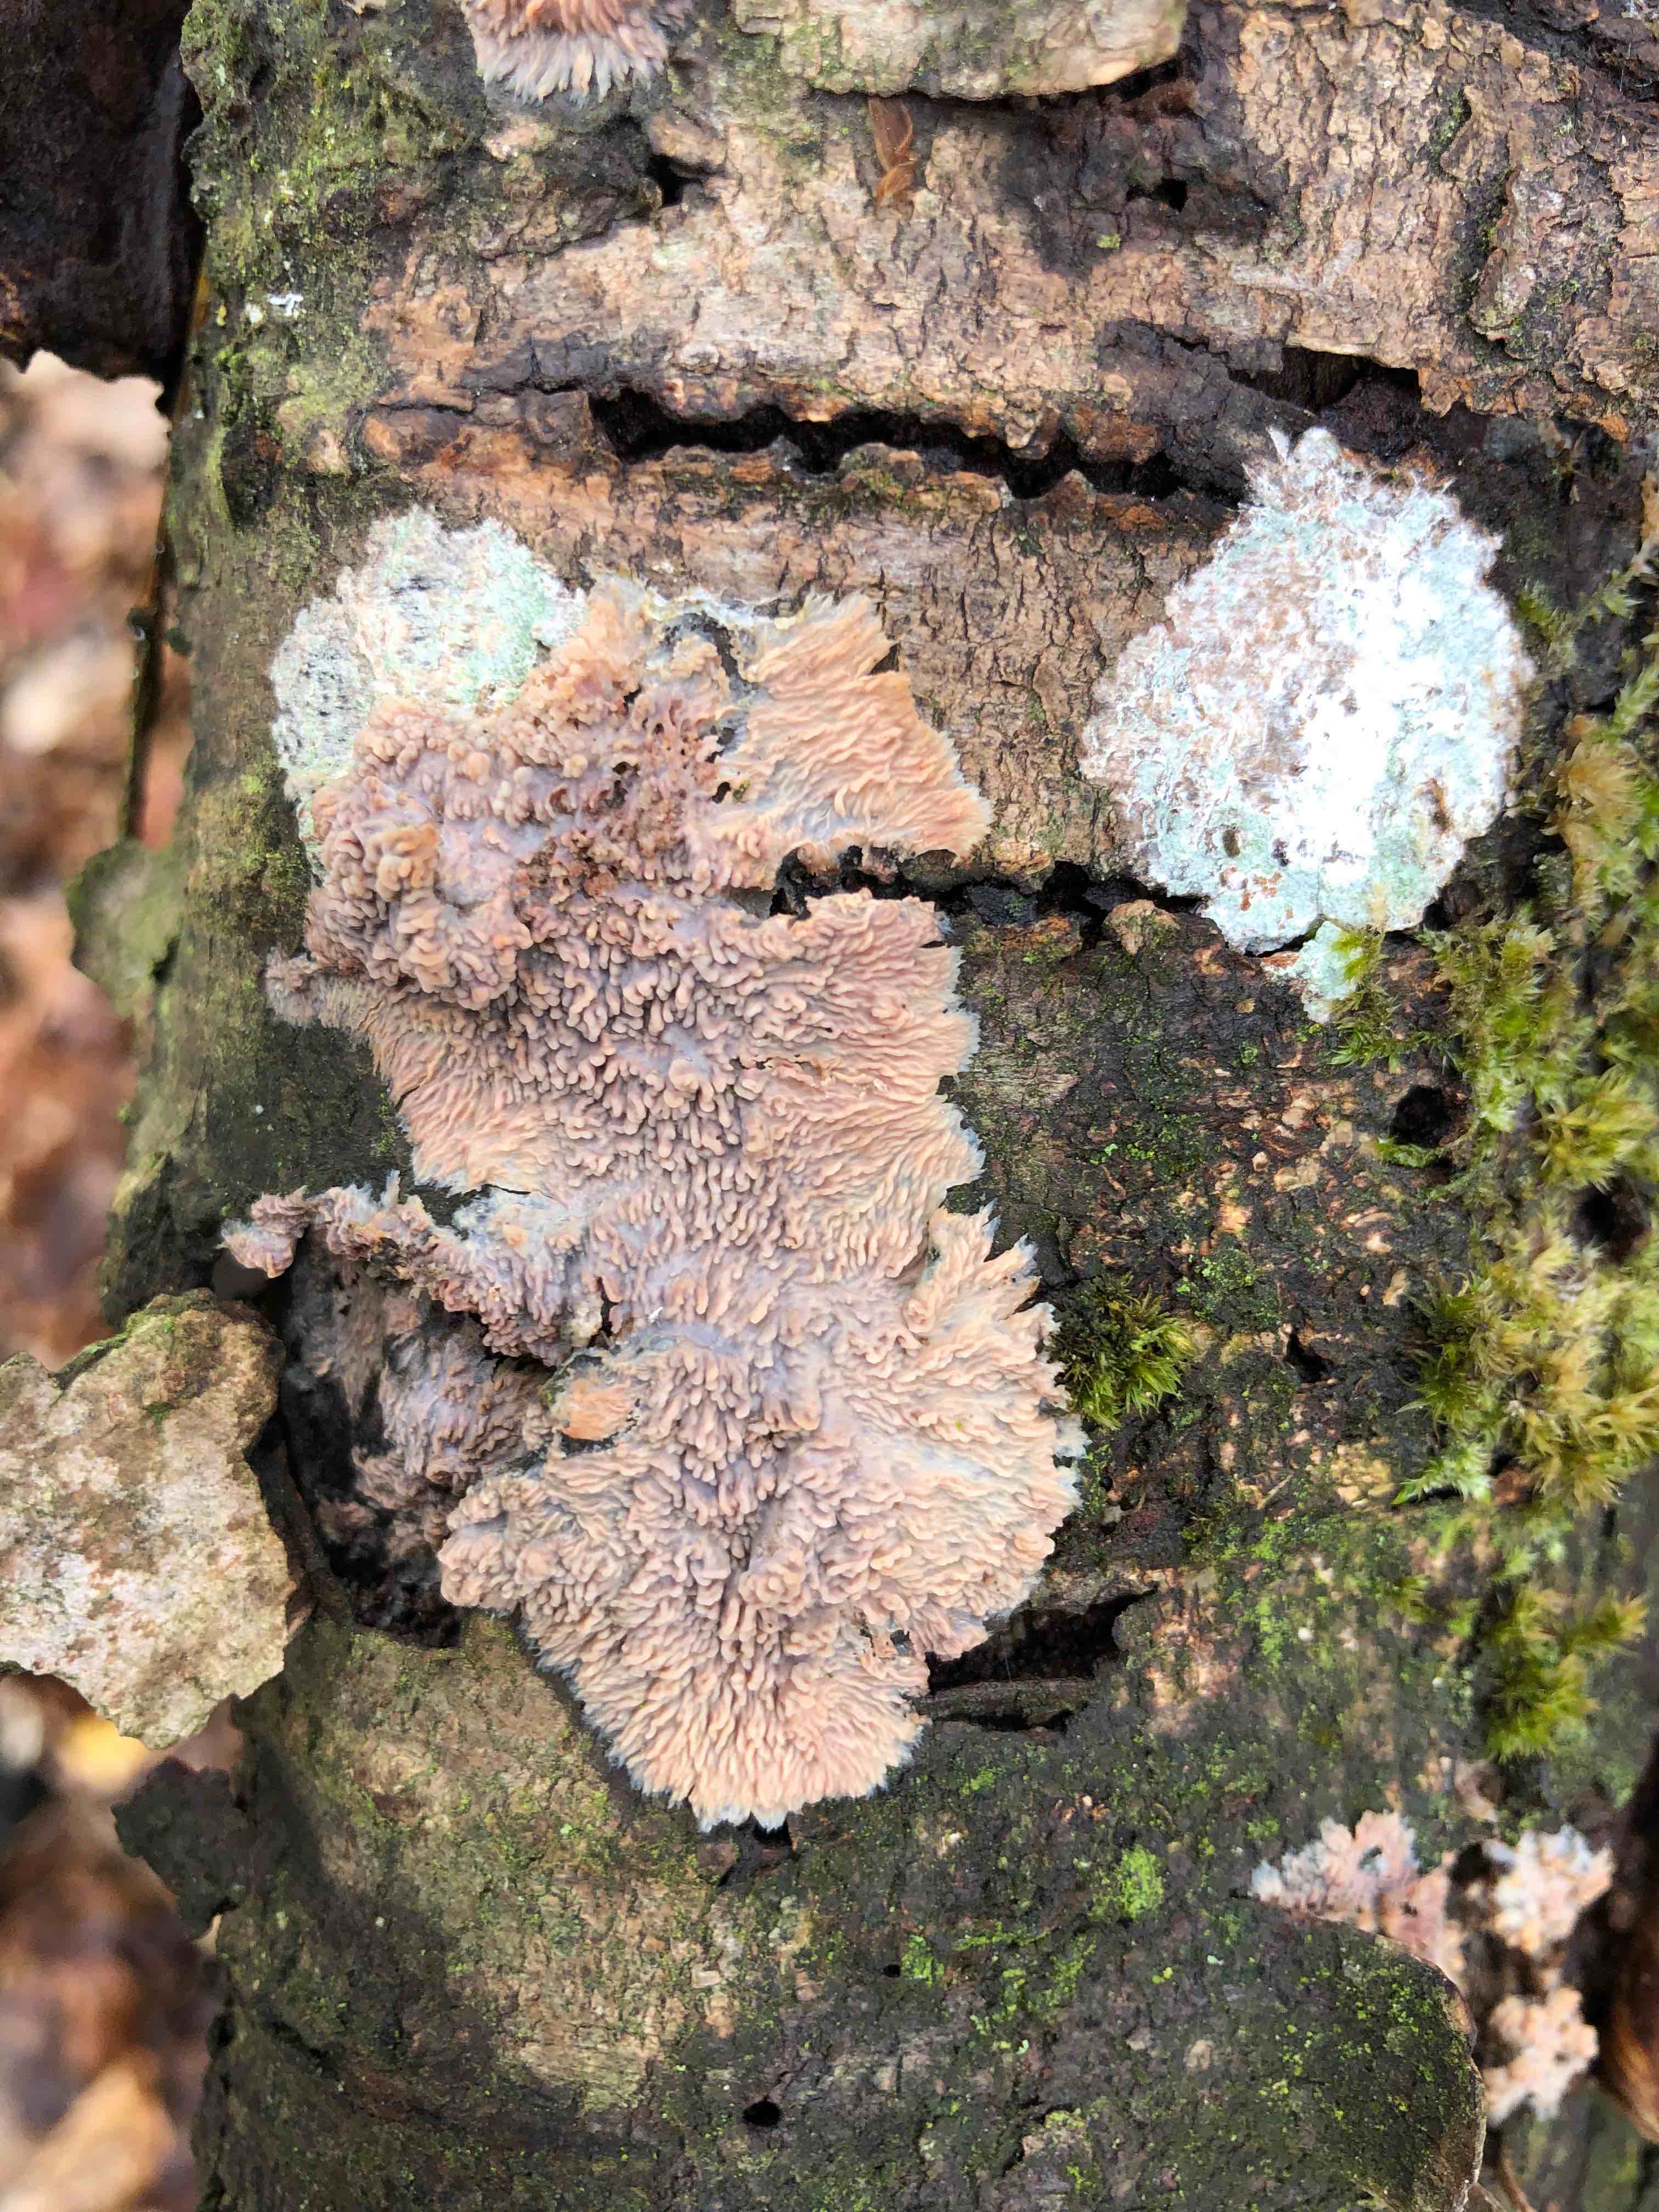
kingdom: Fungi
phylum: Basidiomycota
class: Agaricomycetes
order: Polyporales
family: Meruliaceae
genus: Phlebia
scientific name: Phlebia radiata
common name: stråle-åresvamp
